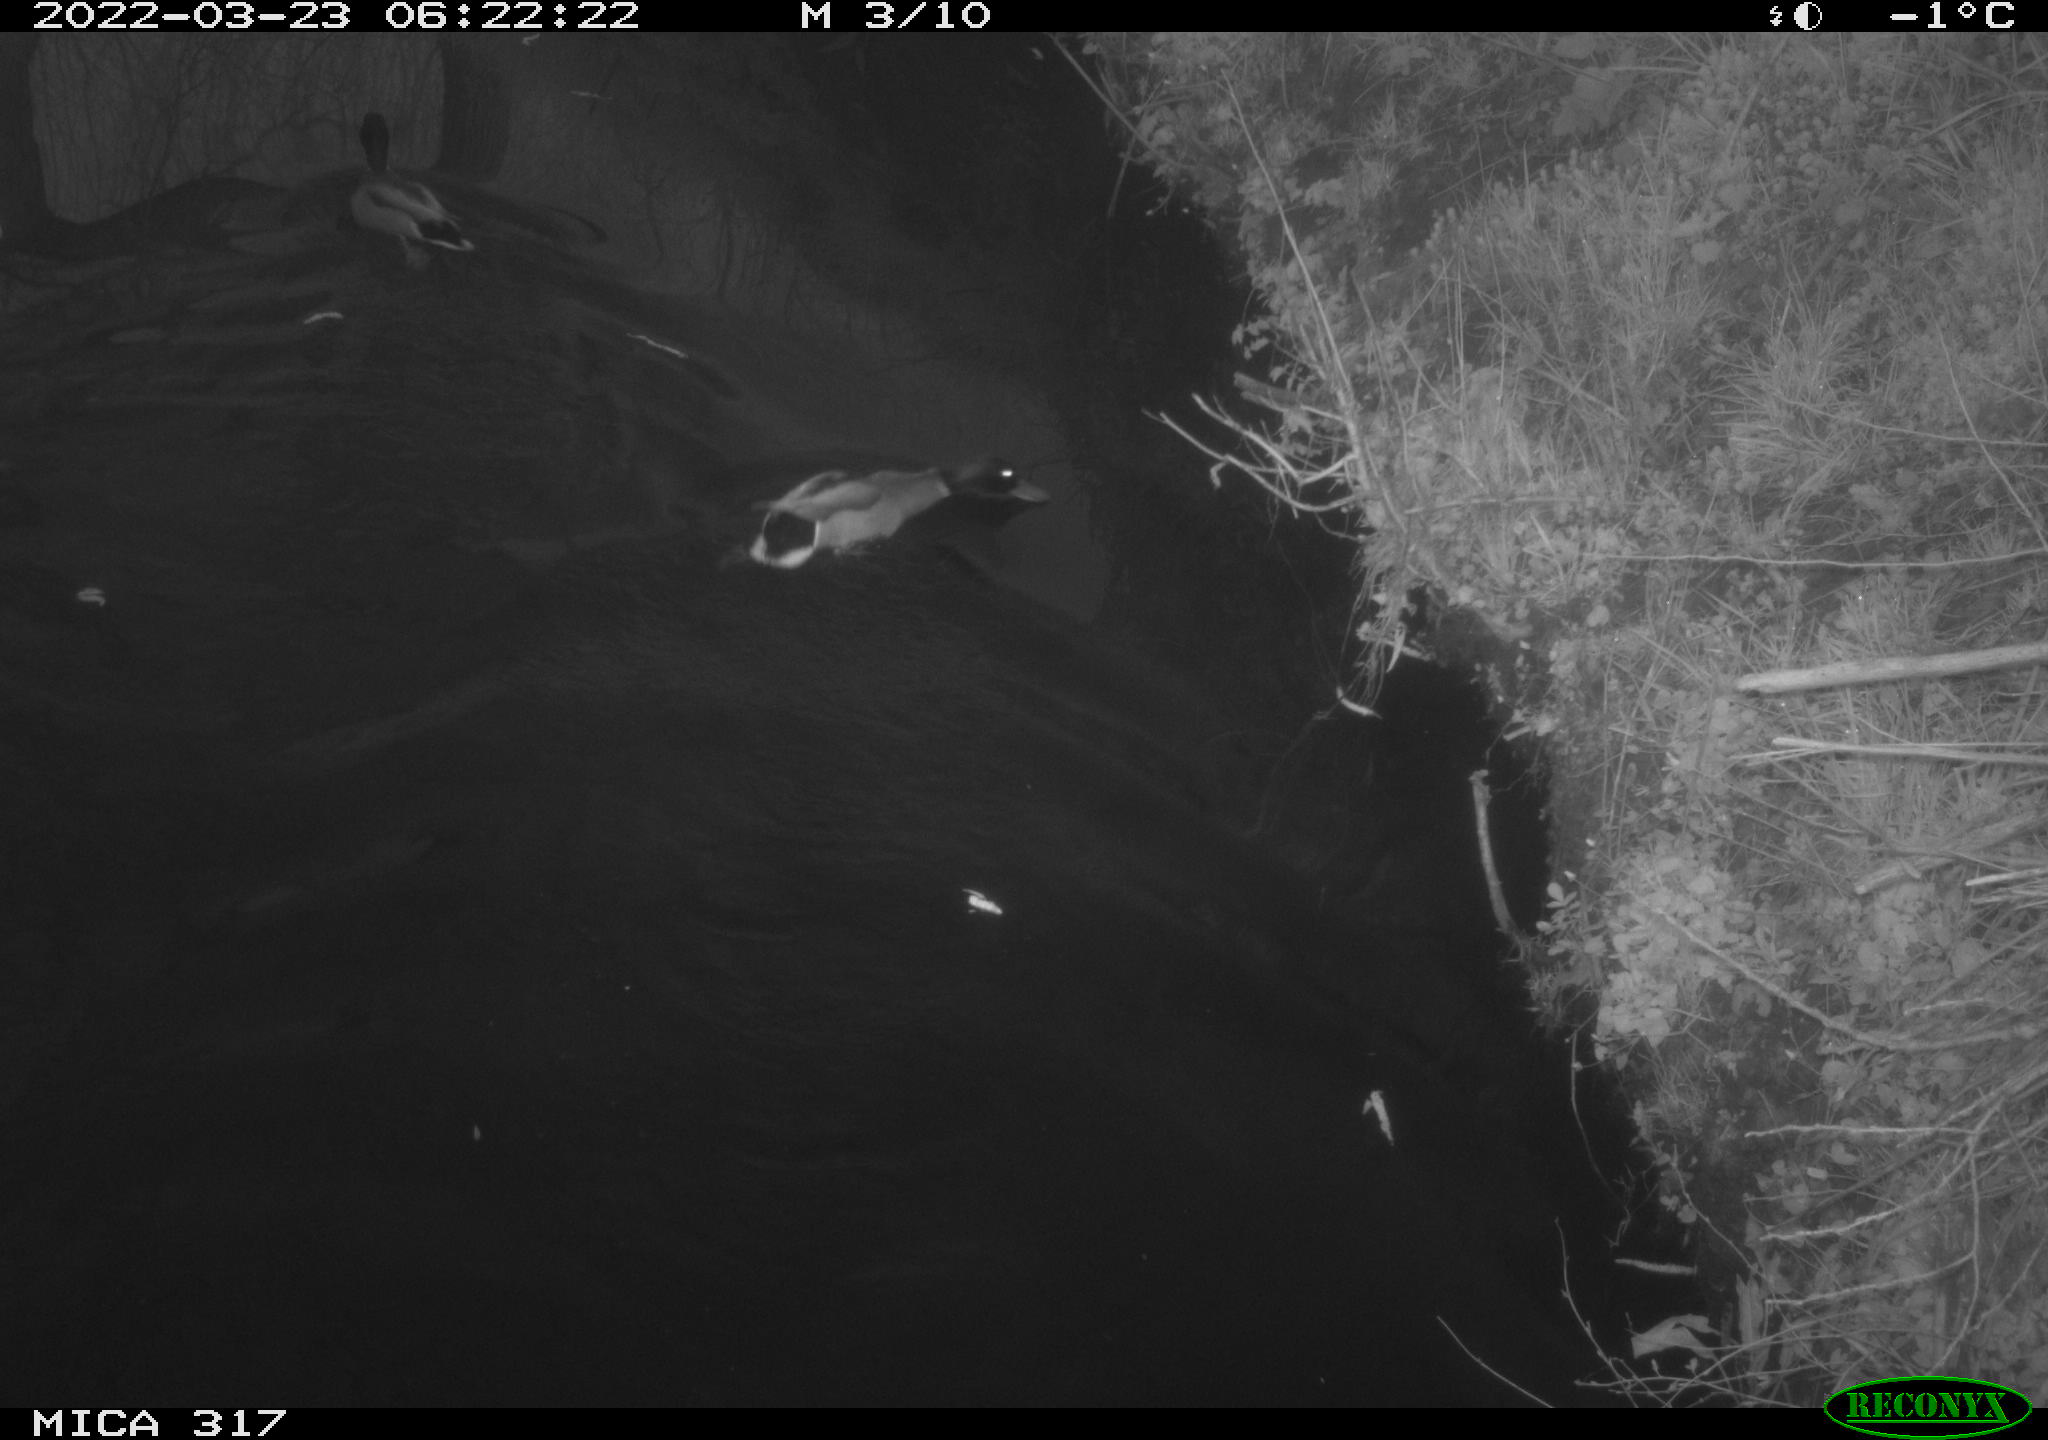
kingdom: Animalia
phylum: Chordata
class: Aves
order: Anseriformes
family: Anatidae
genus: Anas
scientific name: Anas platyrhynchos
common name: Mallard
